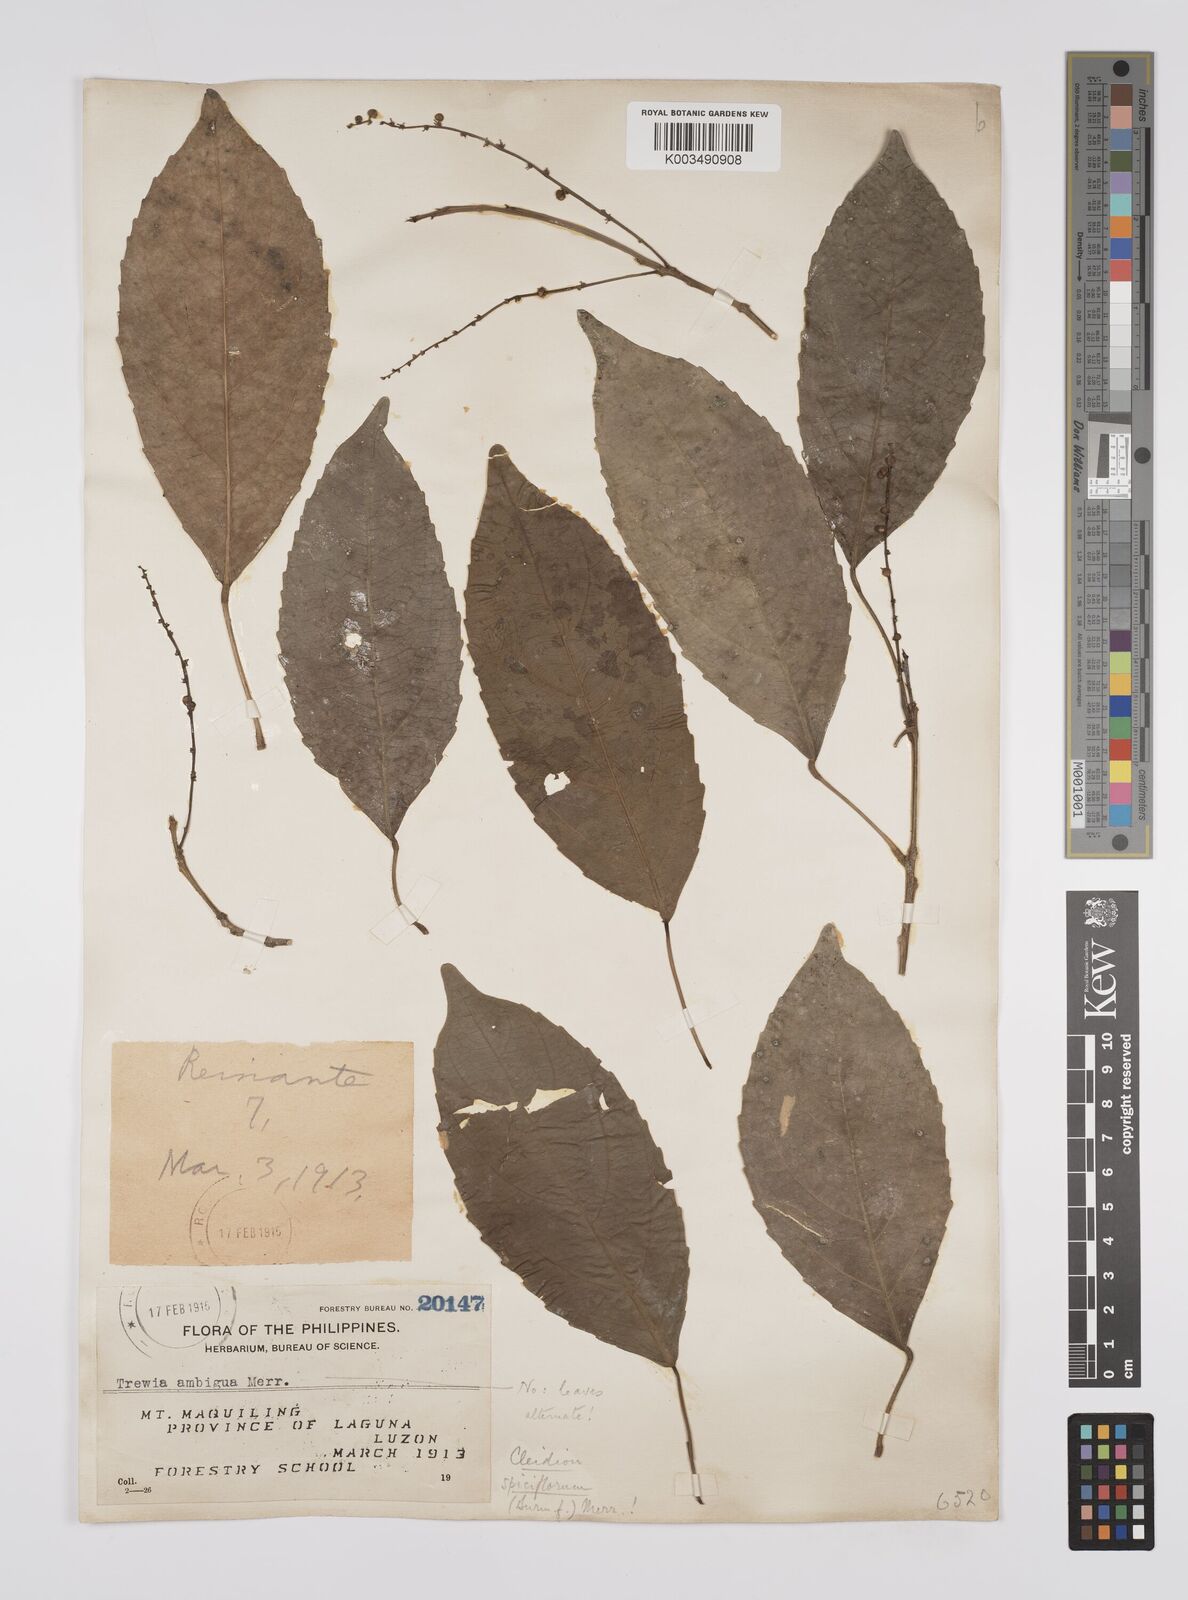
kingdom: Plantae
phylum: Tracheophyta
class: Magnoliopsida
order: Malpighiales
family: Euphorbiaceae
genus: Cleidion
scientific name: Cleidion javanicum
